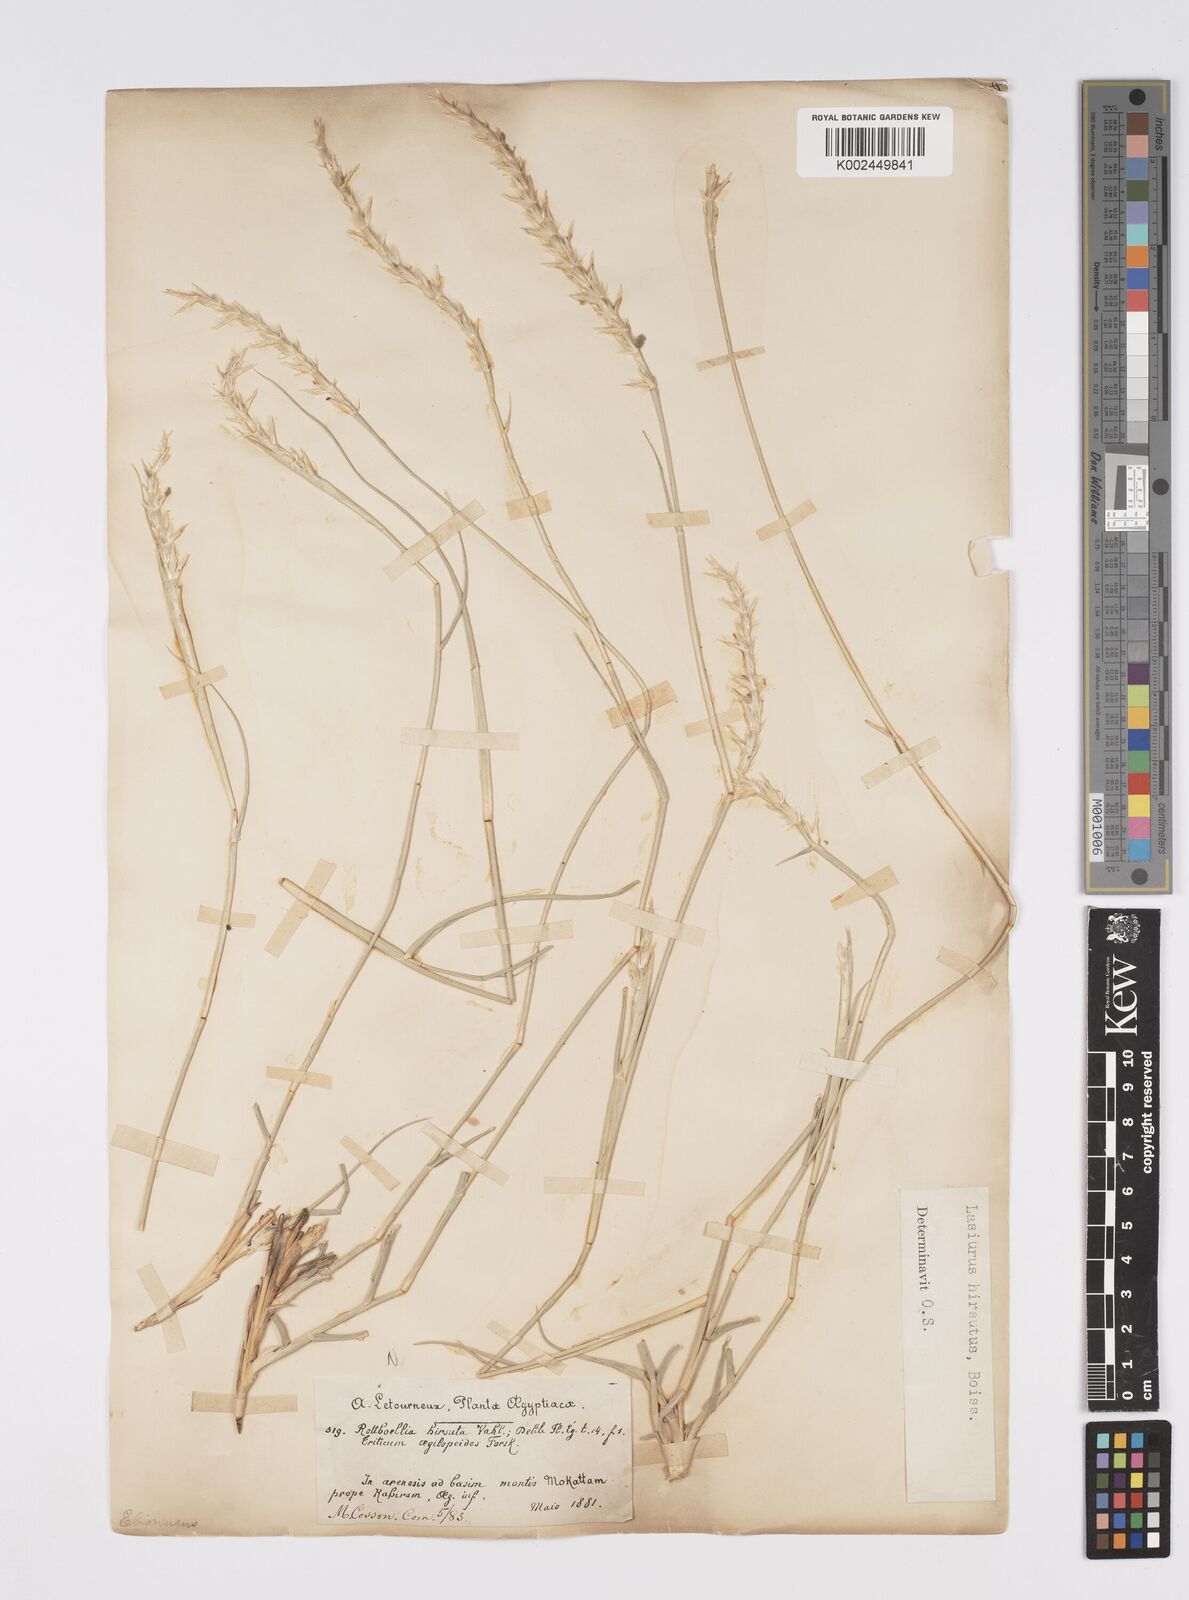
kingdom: Plantae
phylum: Tracheophyta
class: Liliopsida
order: Poales
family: Poaceae
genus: Lasiurus
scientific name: Lasiurus scindicus
